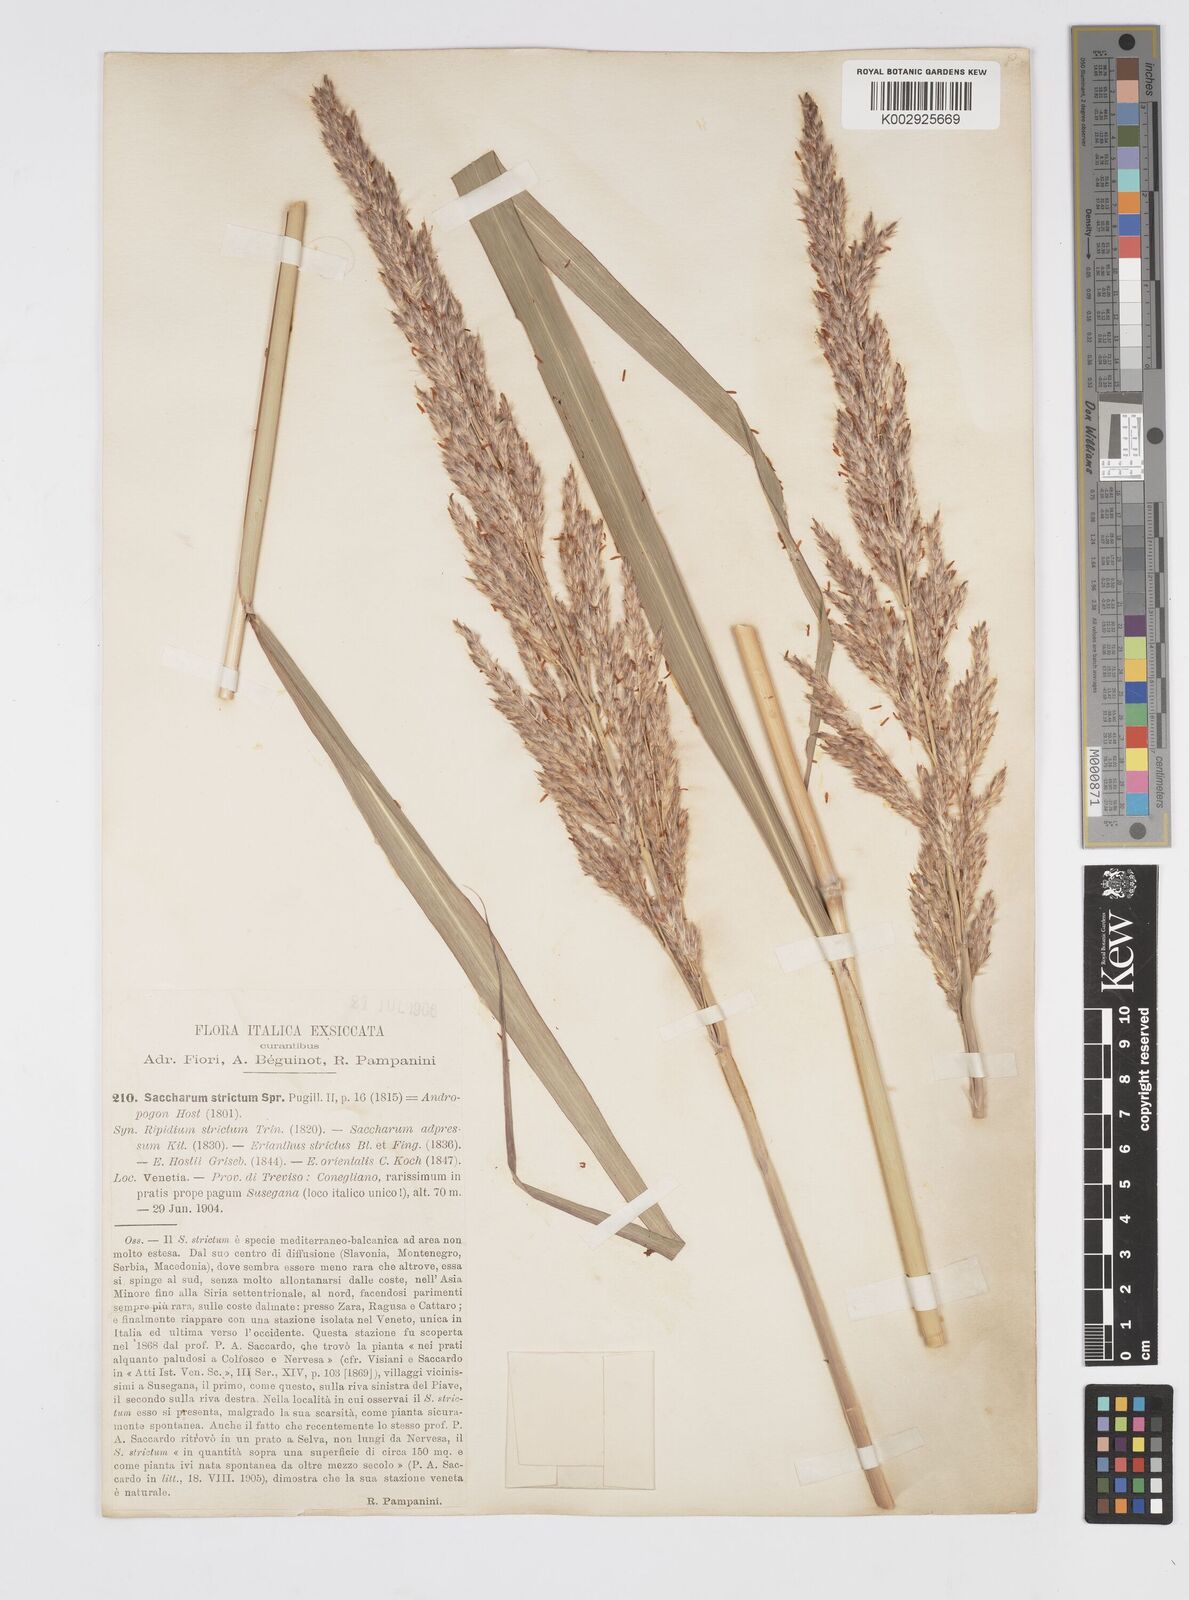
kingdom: Plantae
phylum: Tracheophyta
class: Liliopsida
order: Poales
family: Poaceae
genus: Tripidium
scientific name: Tripidium strictum
